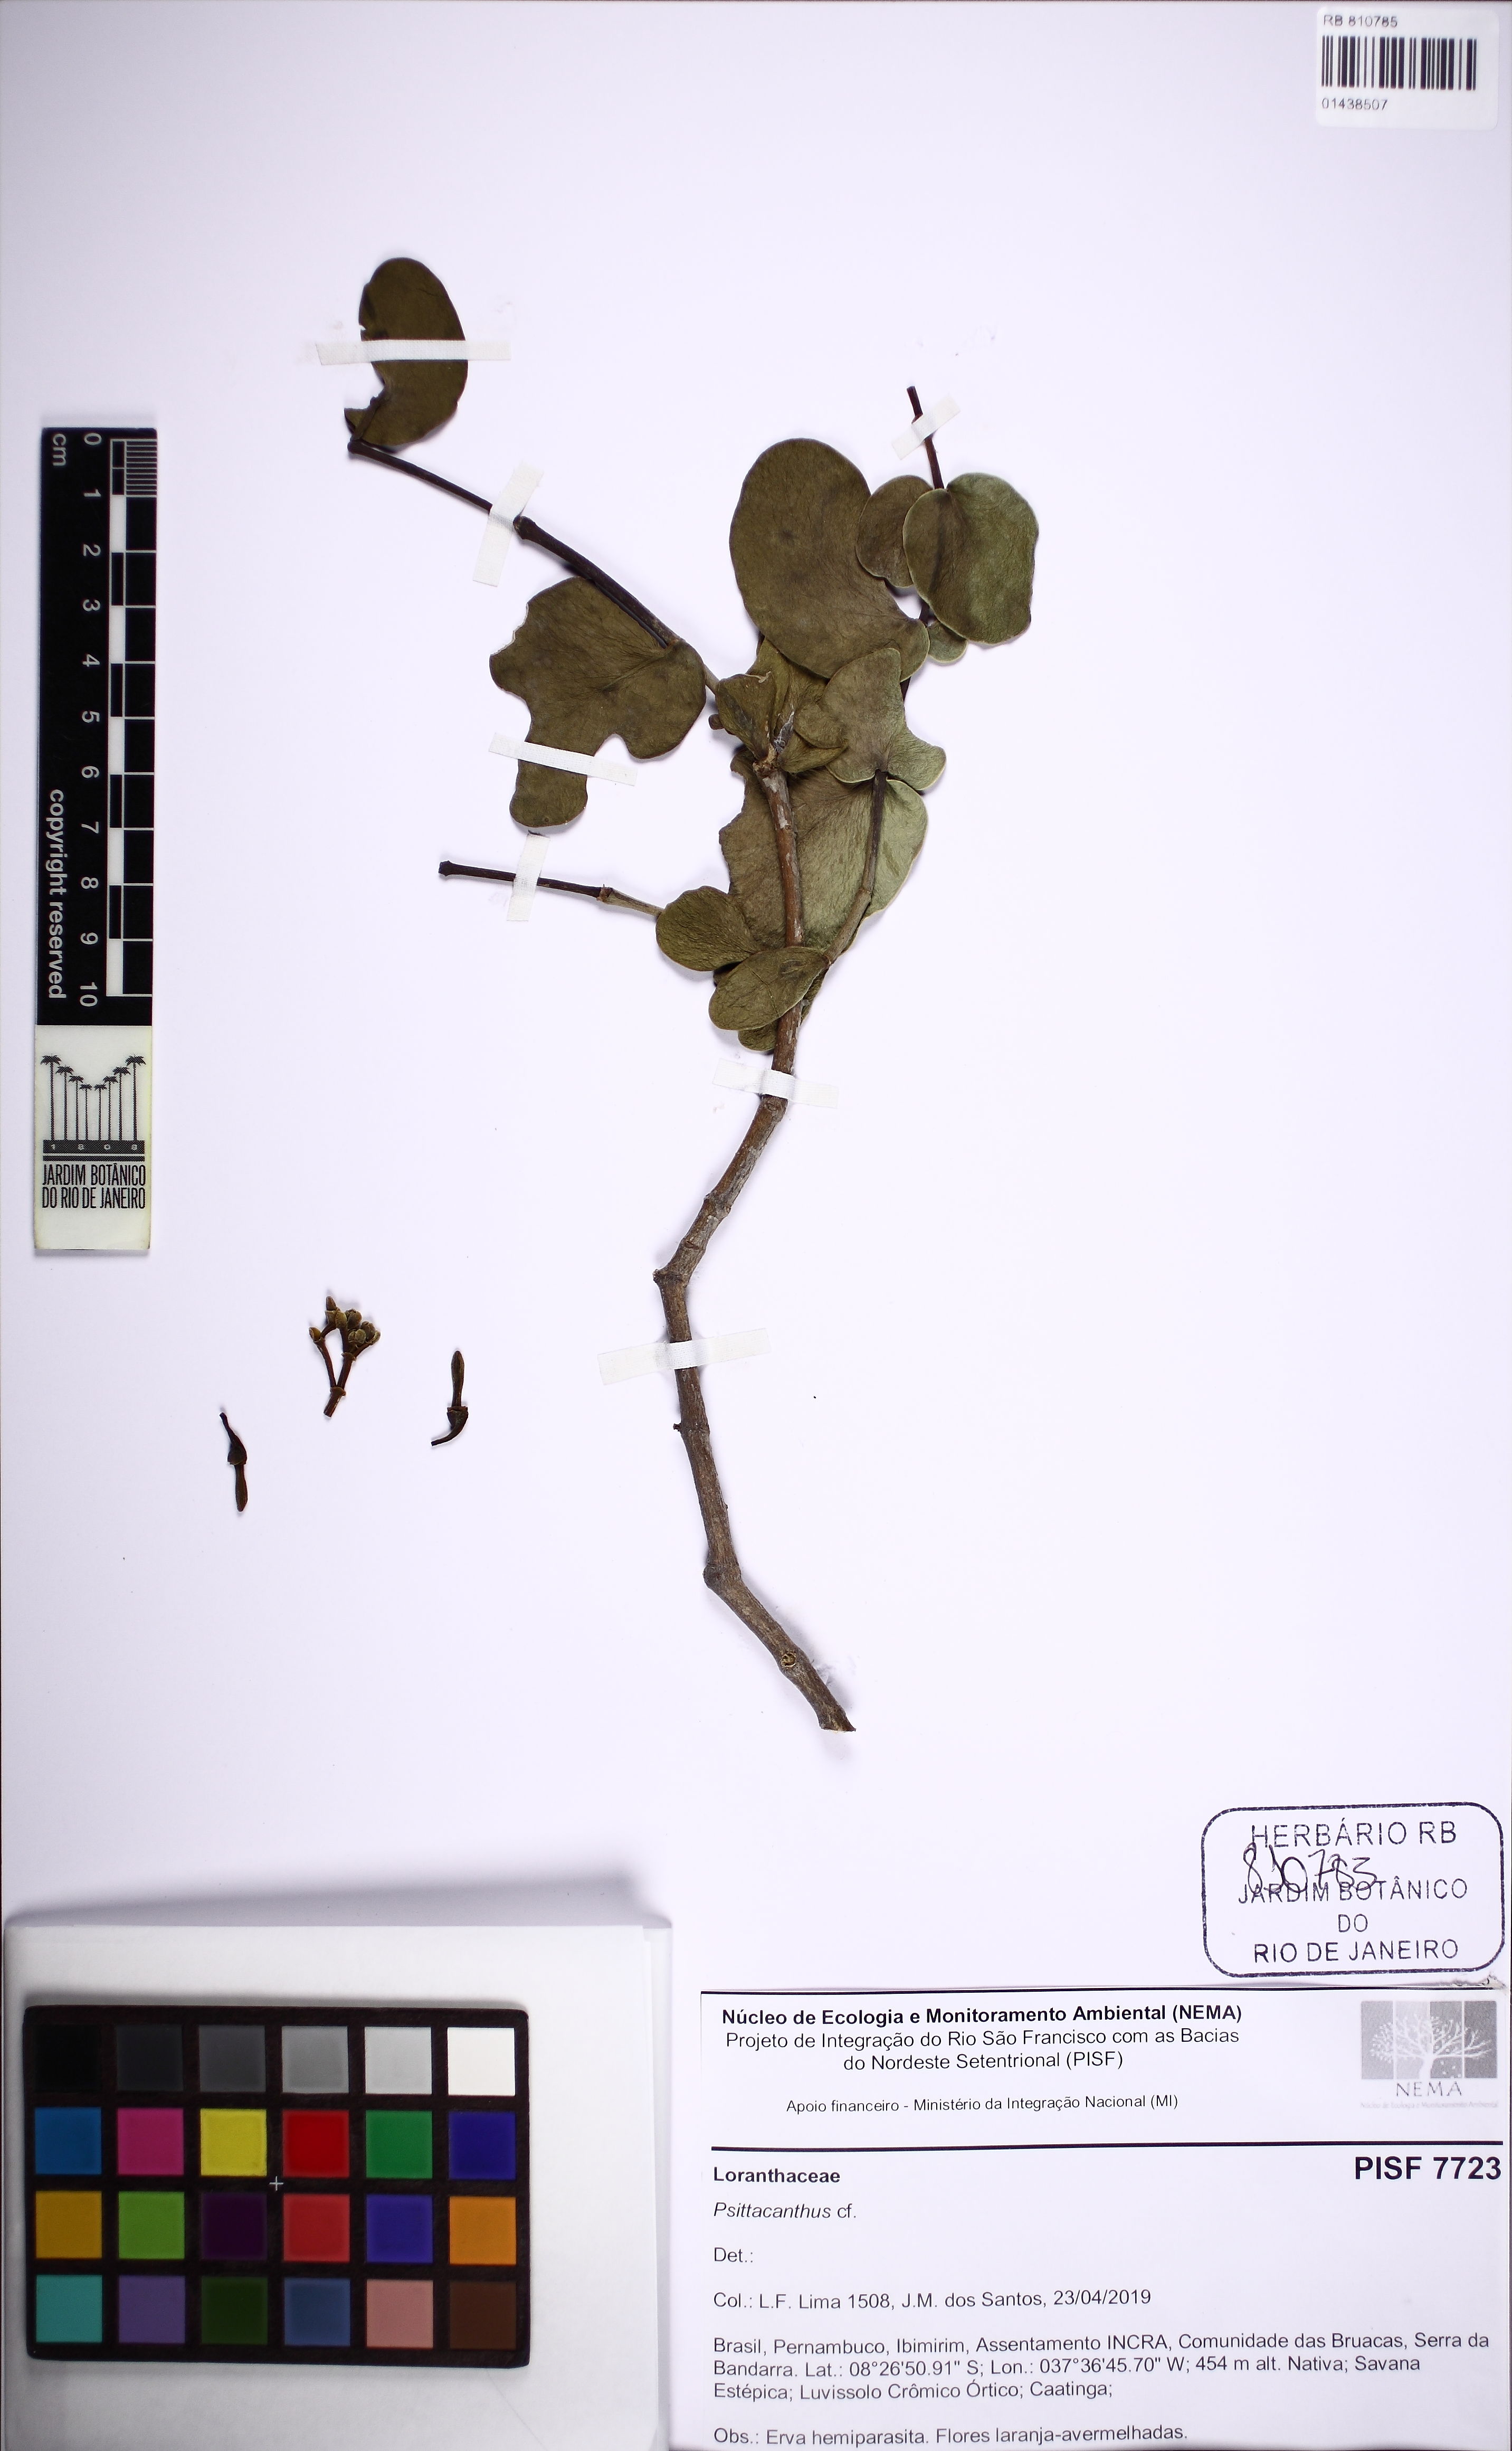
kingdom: Plantae
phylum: Tracheophyta
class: Magnoliopsida
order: Santalales
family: Loranthaceae
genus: Psittacanthus
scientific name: Psittacanthus
